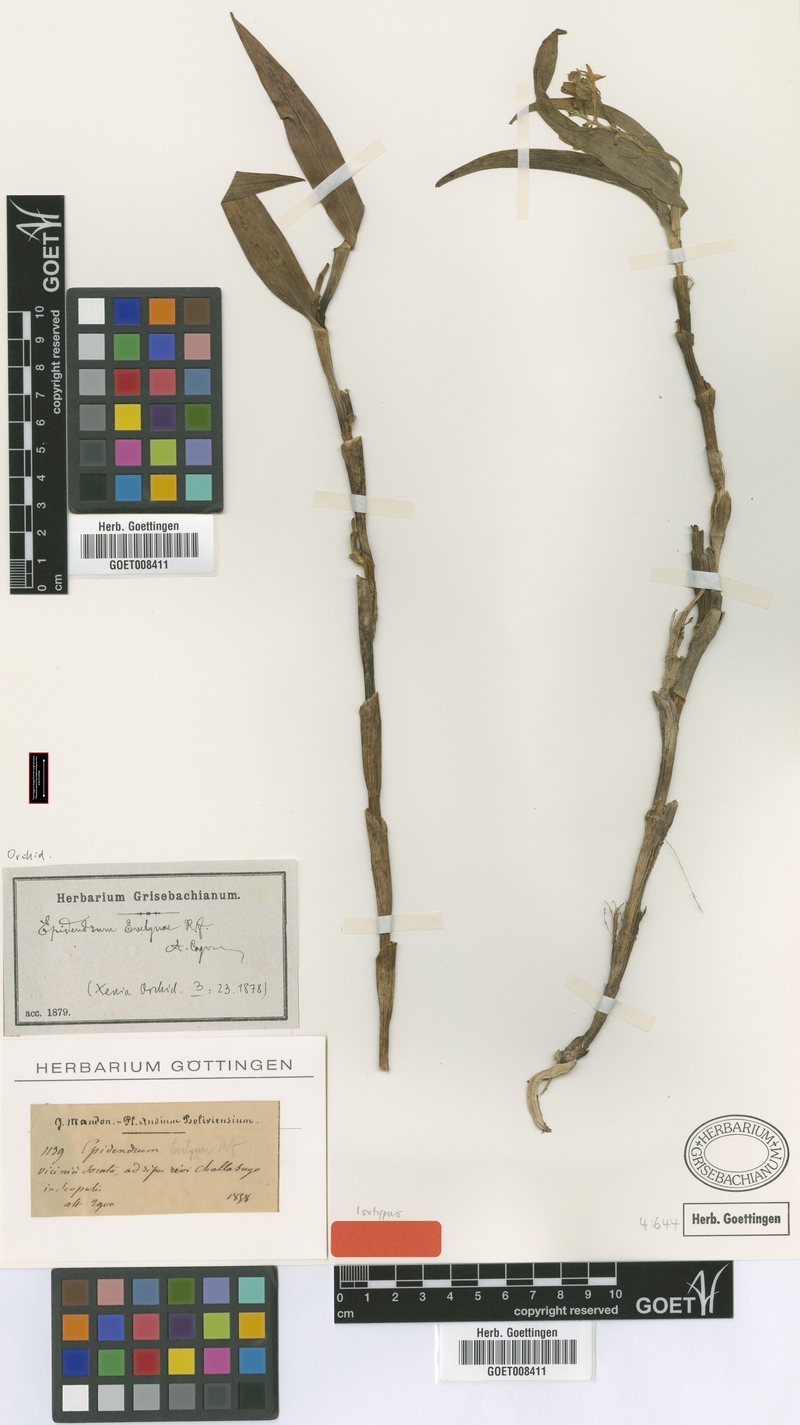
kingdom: Plantae
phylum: Tracheophyta
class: Liliopsida
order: Asparagales
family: Orchidaceae
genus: Epidendrum
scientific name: Epidendrum evelynae
